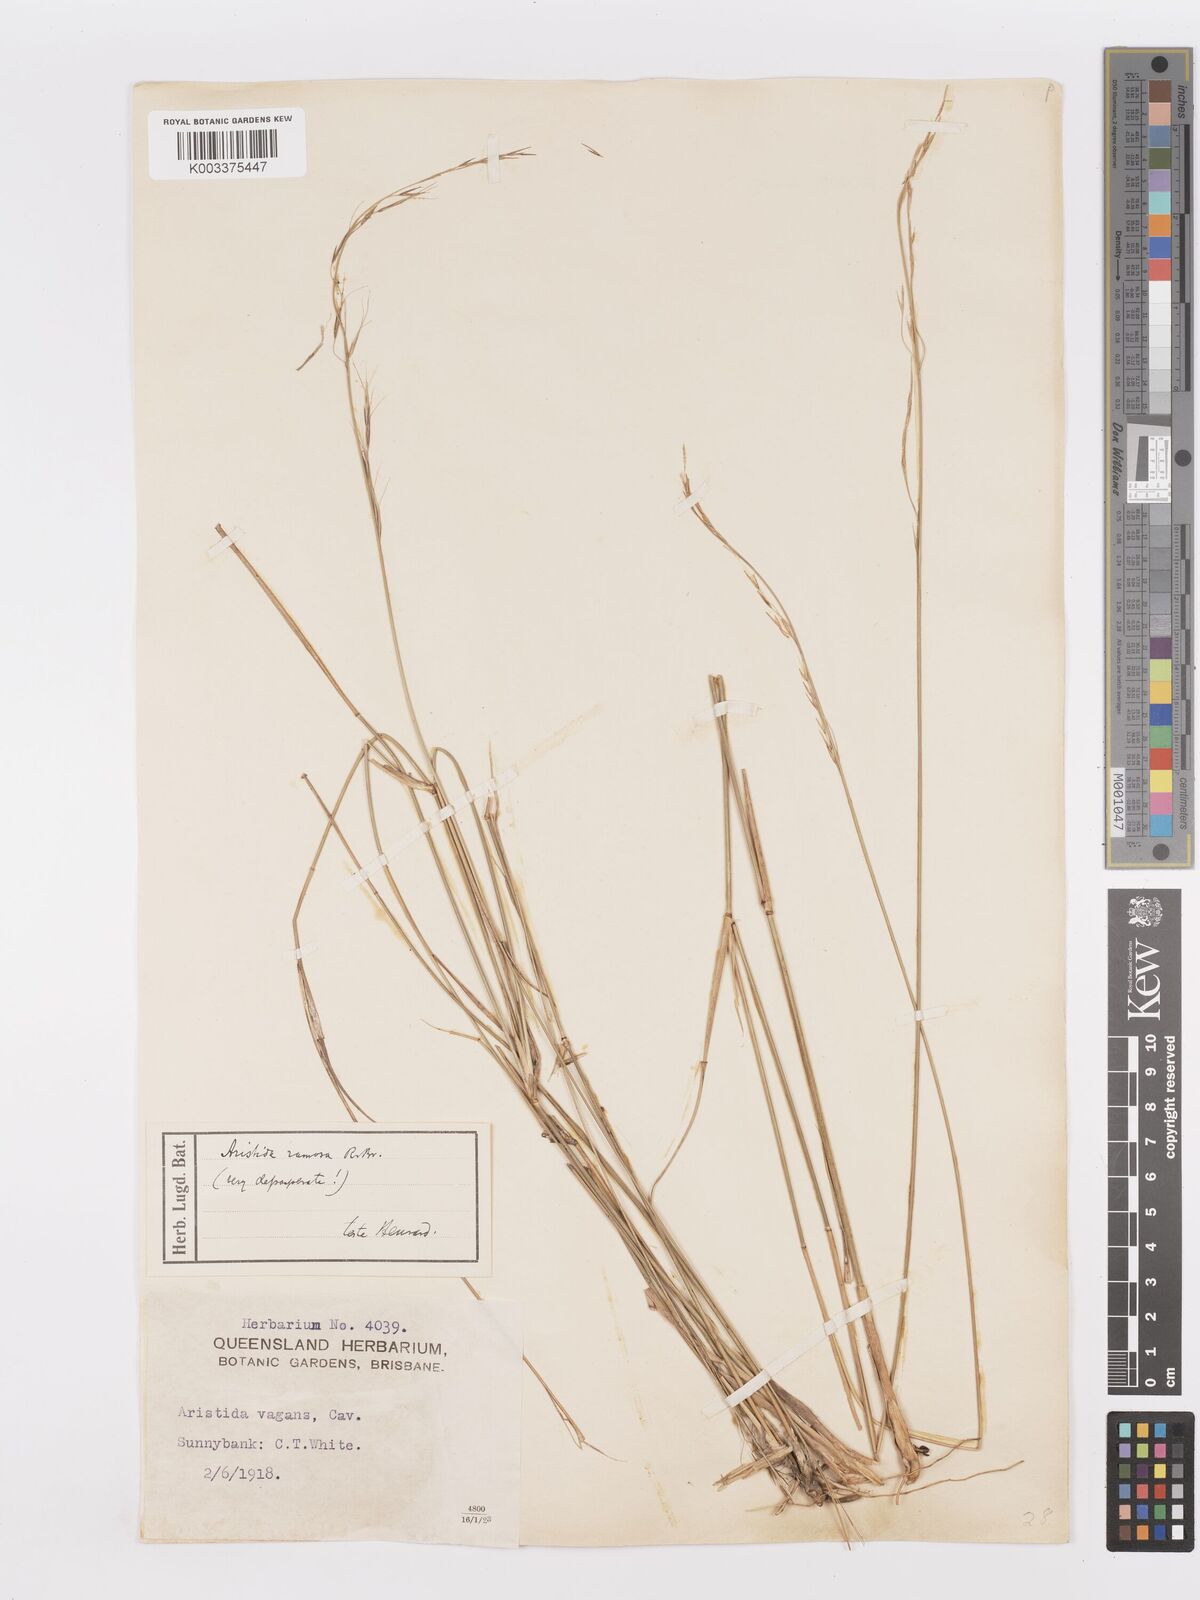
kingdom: Plantae
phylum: Tracheophyta
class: Liliopsida
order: Poales
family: Poaceae
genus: Aristida
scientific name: Aristida ramosa
